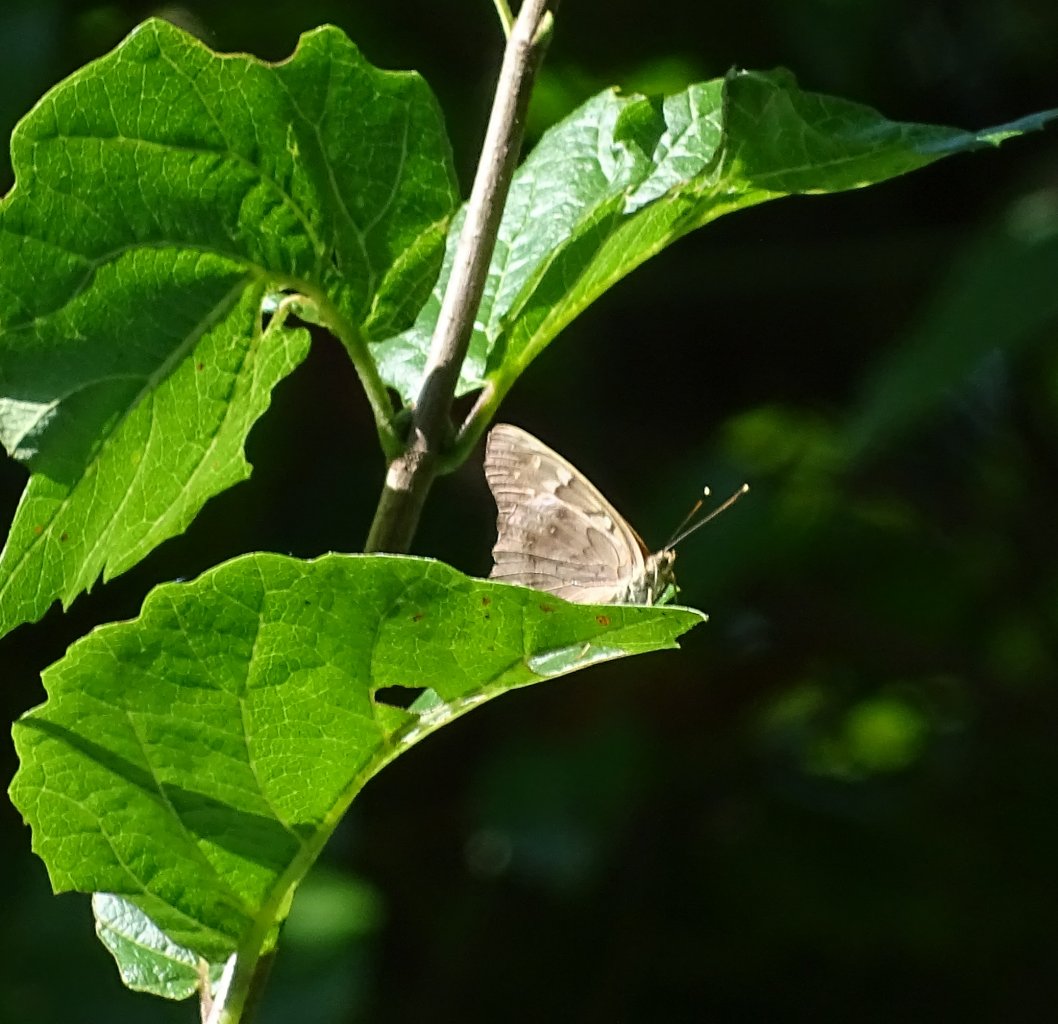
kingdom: Animalia
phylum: Arthropoda
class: Insecta
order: Lepidoptera
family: Nymphalidae
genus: Asterocampa
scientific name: Asterocampa clyton
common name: Tawny Emperor
